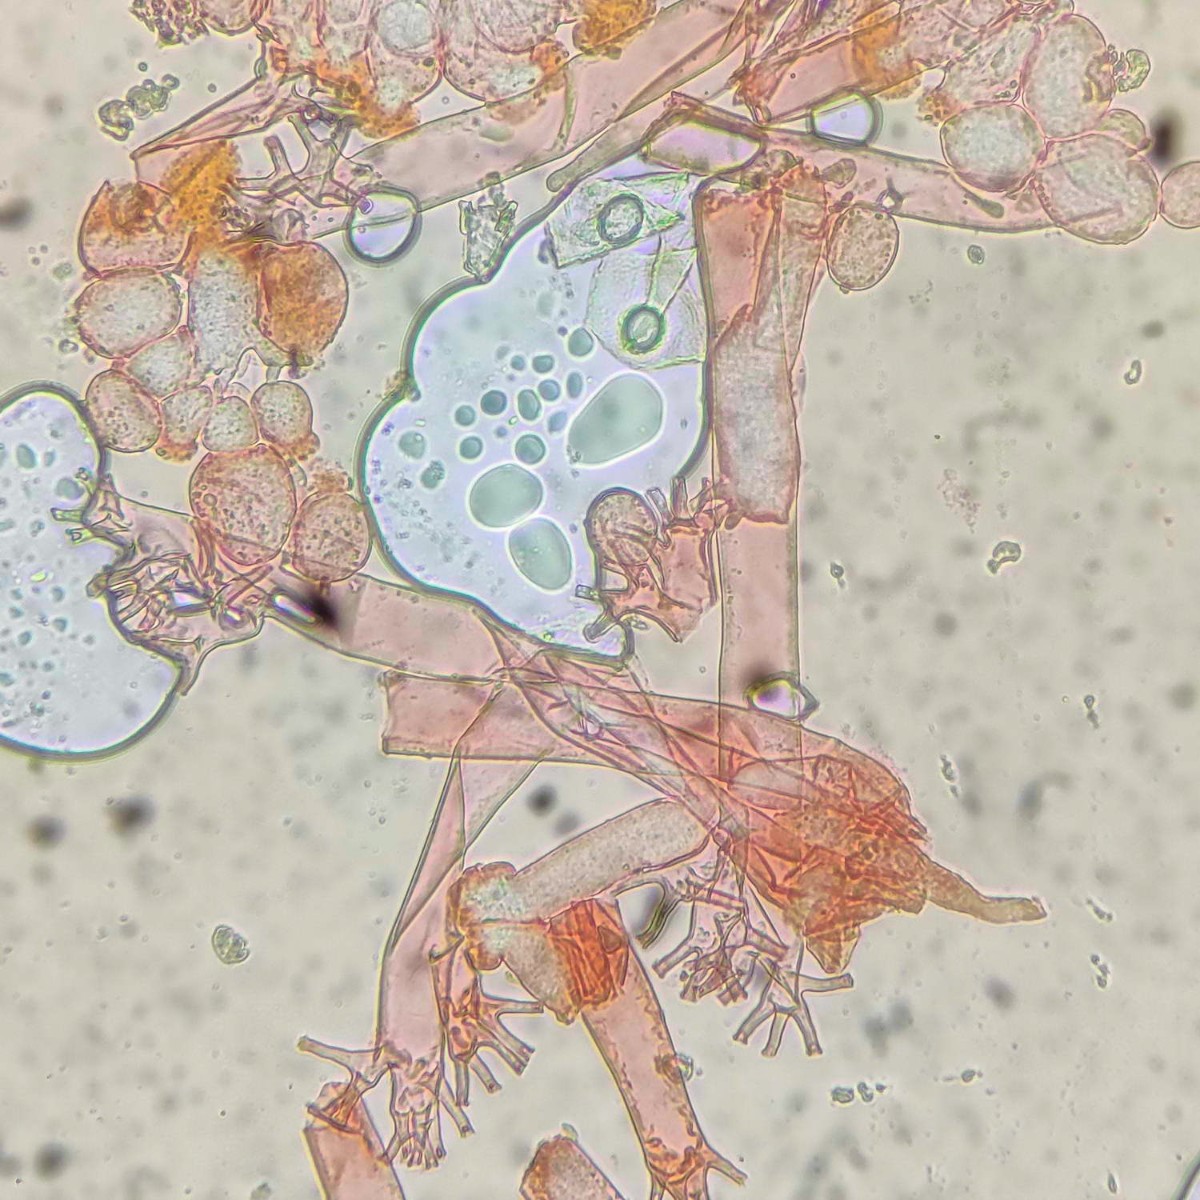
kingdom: Chromista
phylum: Oomycota
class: Peronosporea
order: Peronosporales
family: Peronosporaceae
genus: Plasmoverna
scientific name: Plasmoverna pygmaea
